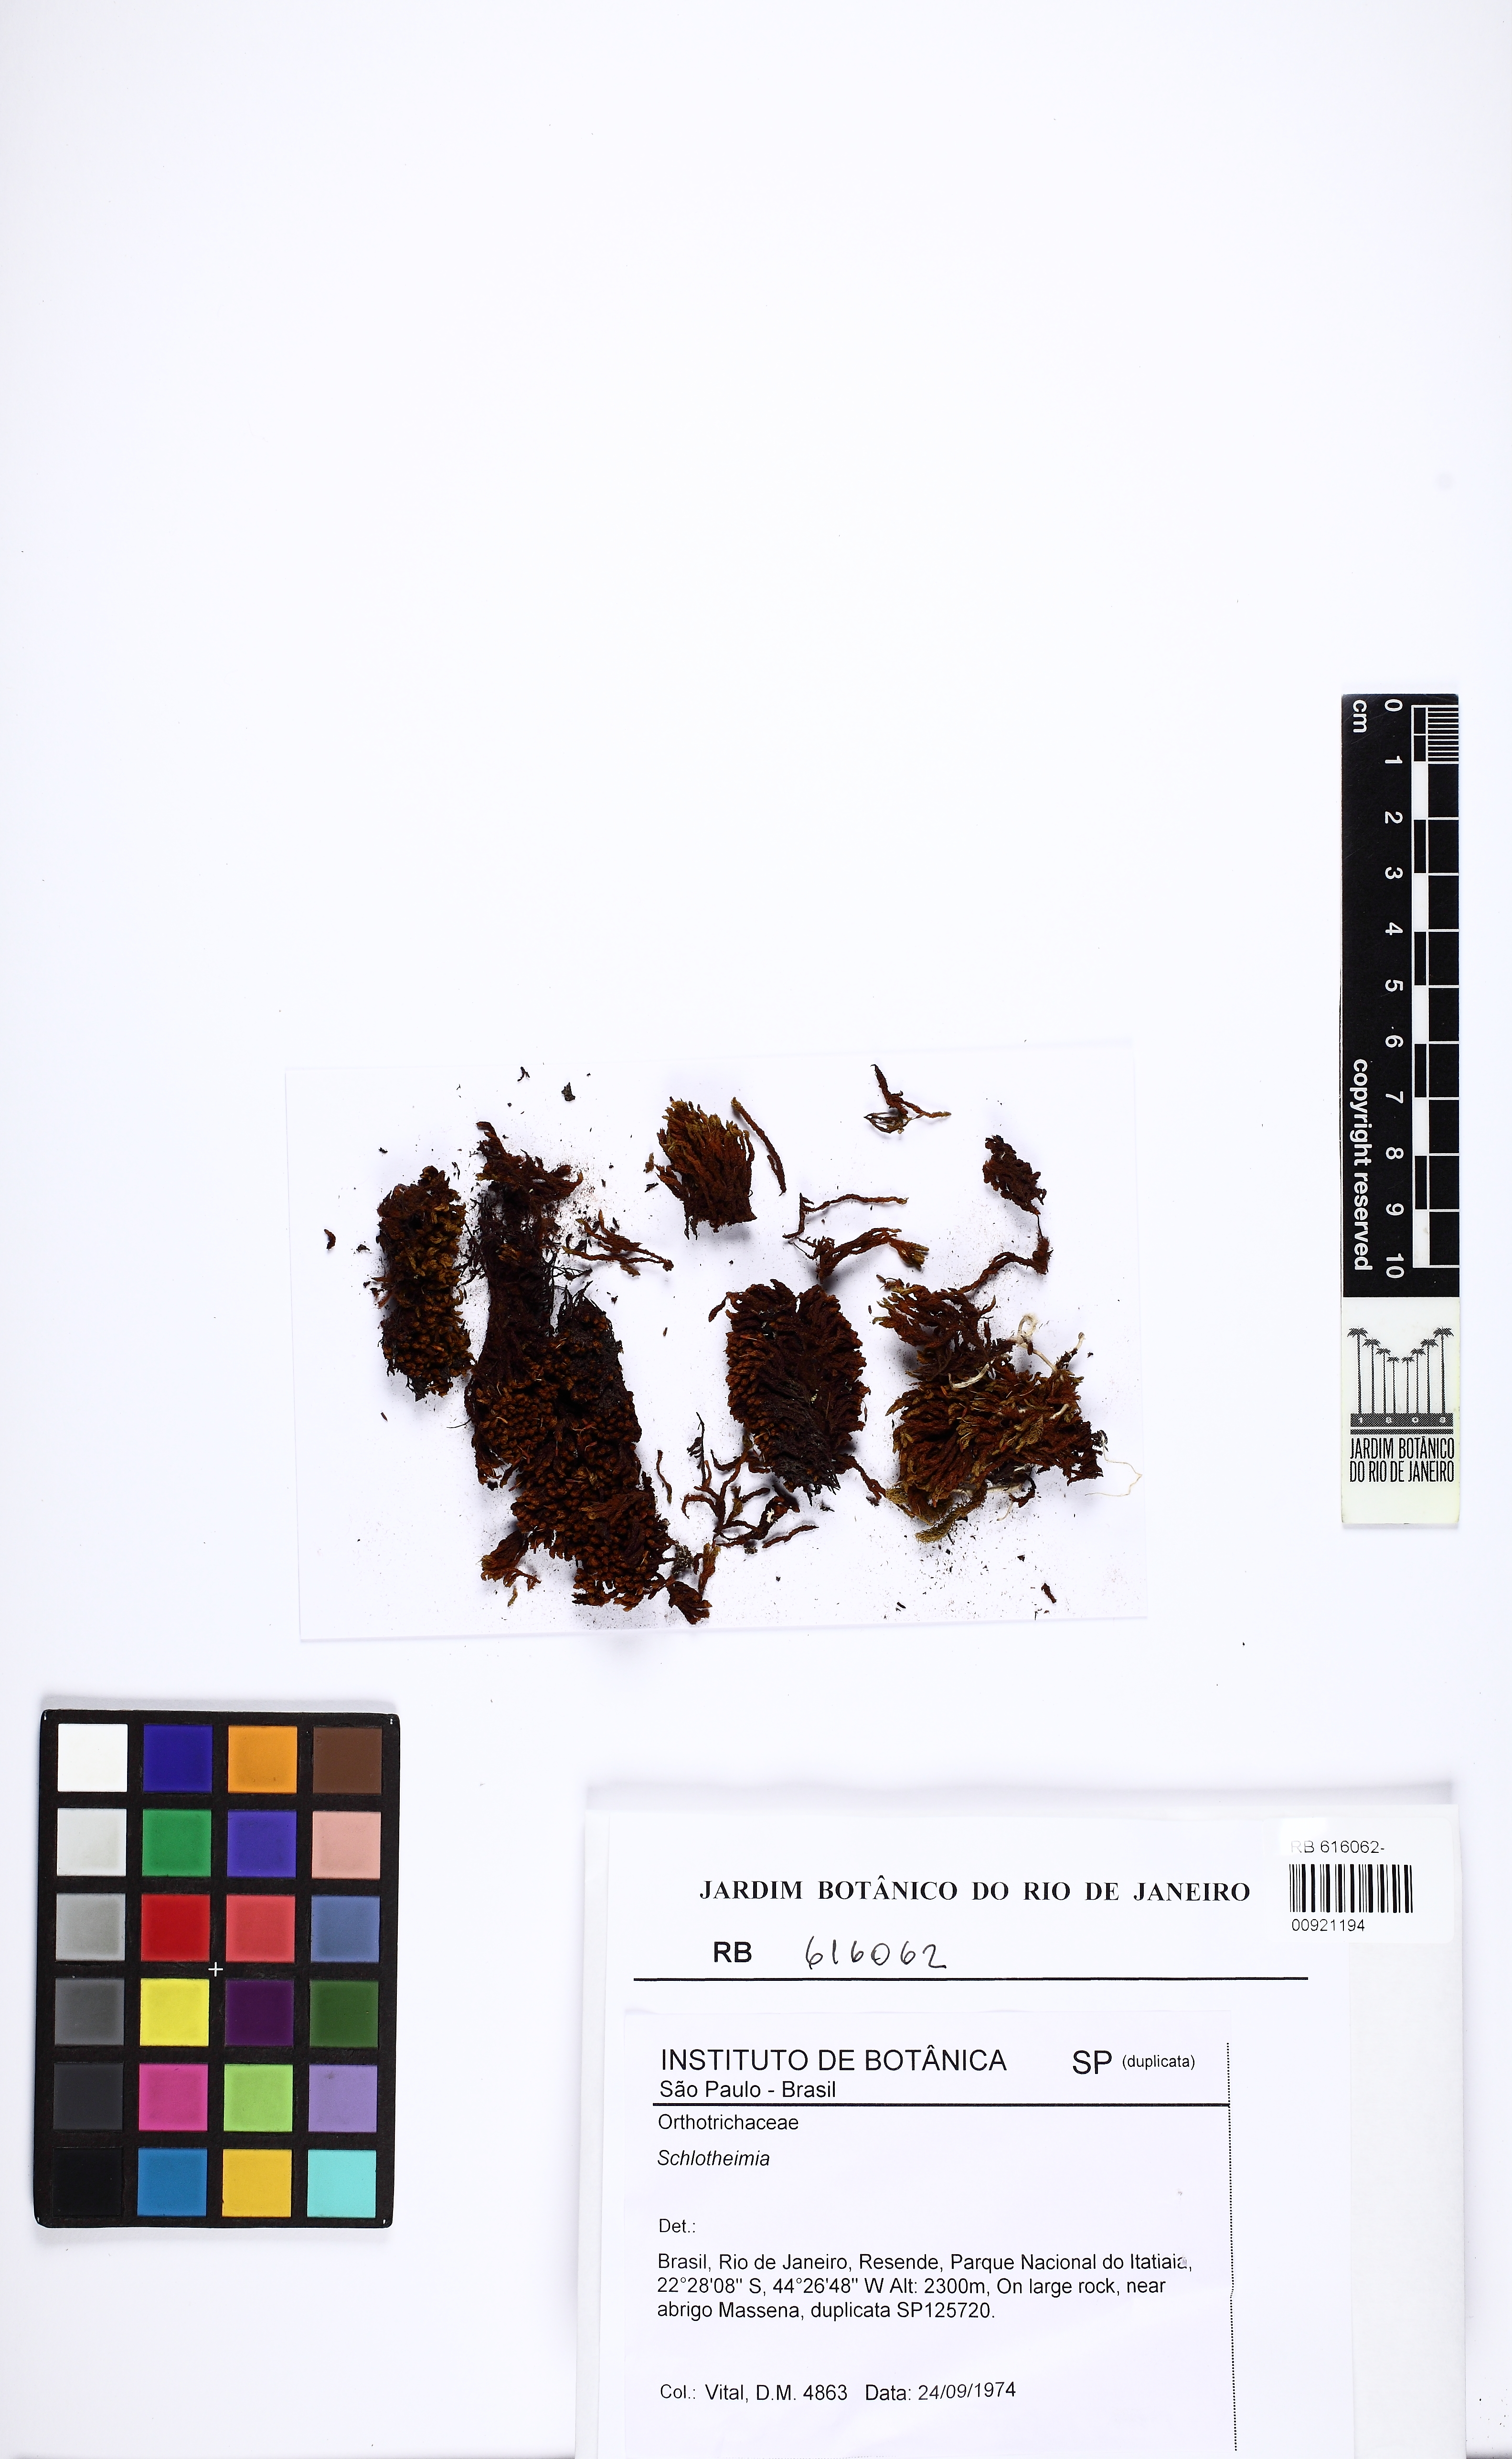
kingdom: Plantae
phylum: Bryophyta
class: Bryopsida
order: Orthotrichales
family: Orthotrichaceae
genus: Schlotheimia
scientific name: Schlotheimia
